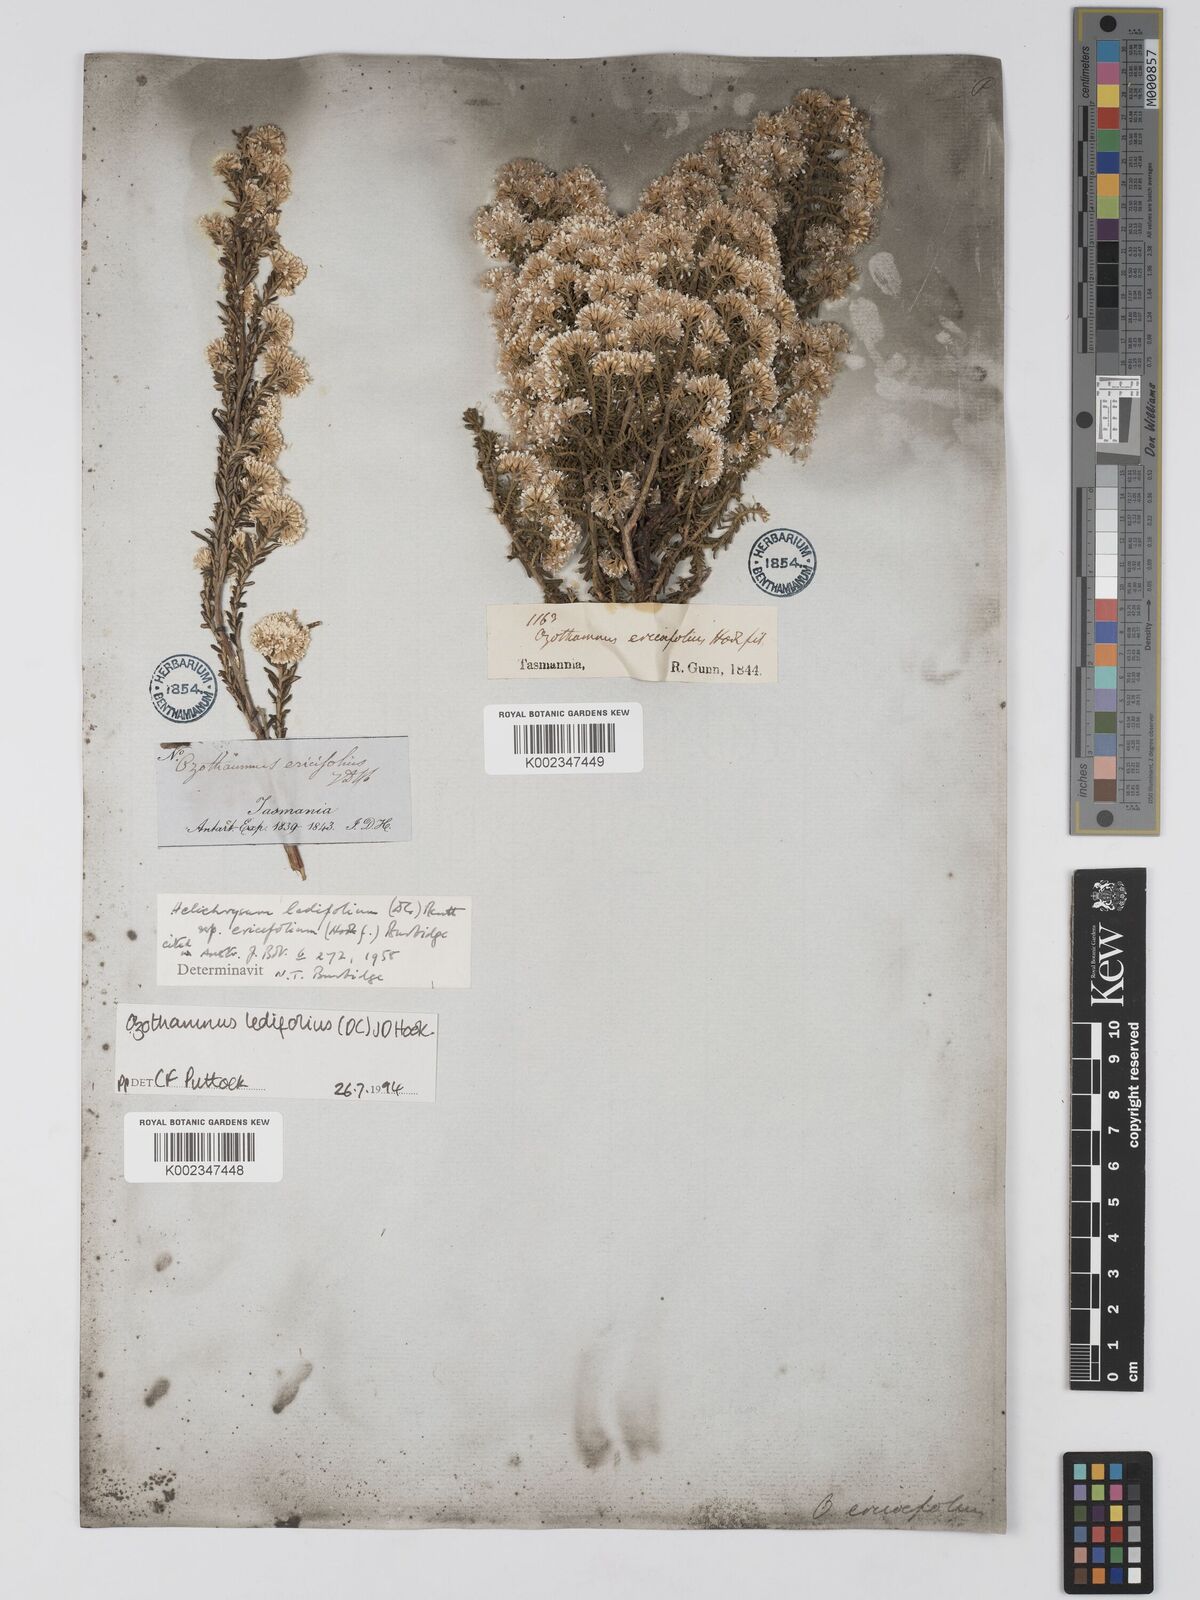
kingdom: Plantae
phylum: Tracheophyta
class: Magnoliopsida
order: Asterales
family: Asteraceae
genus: Ozothamnus
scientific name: Ozothamnus ledifolius
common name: Kerosene-weed
